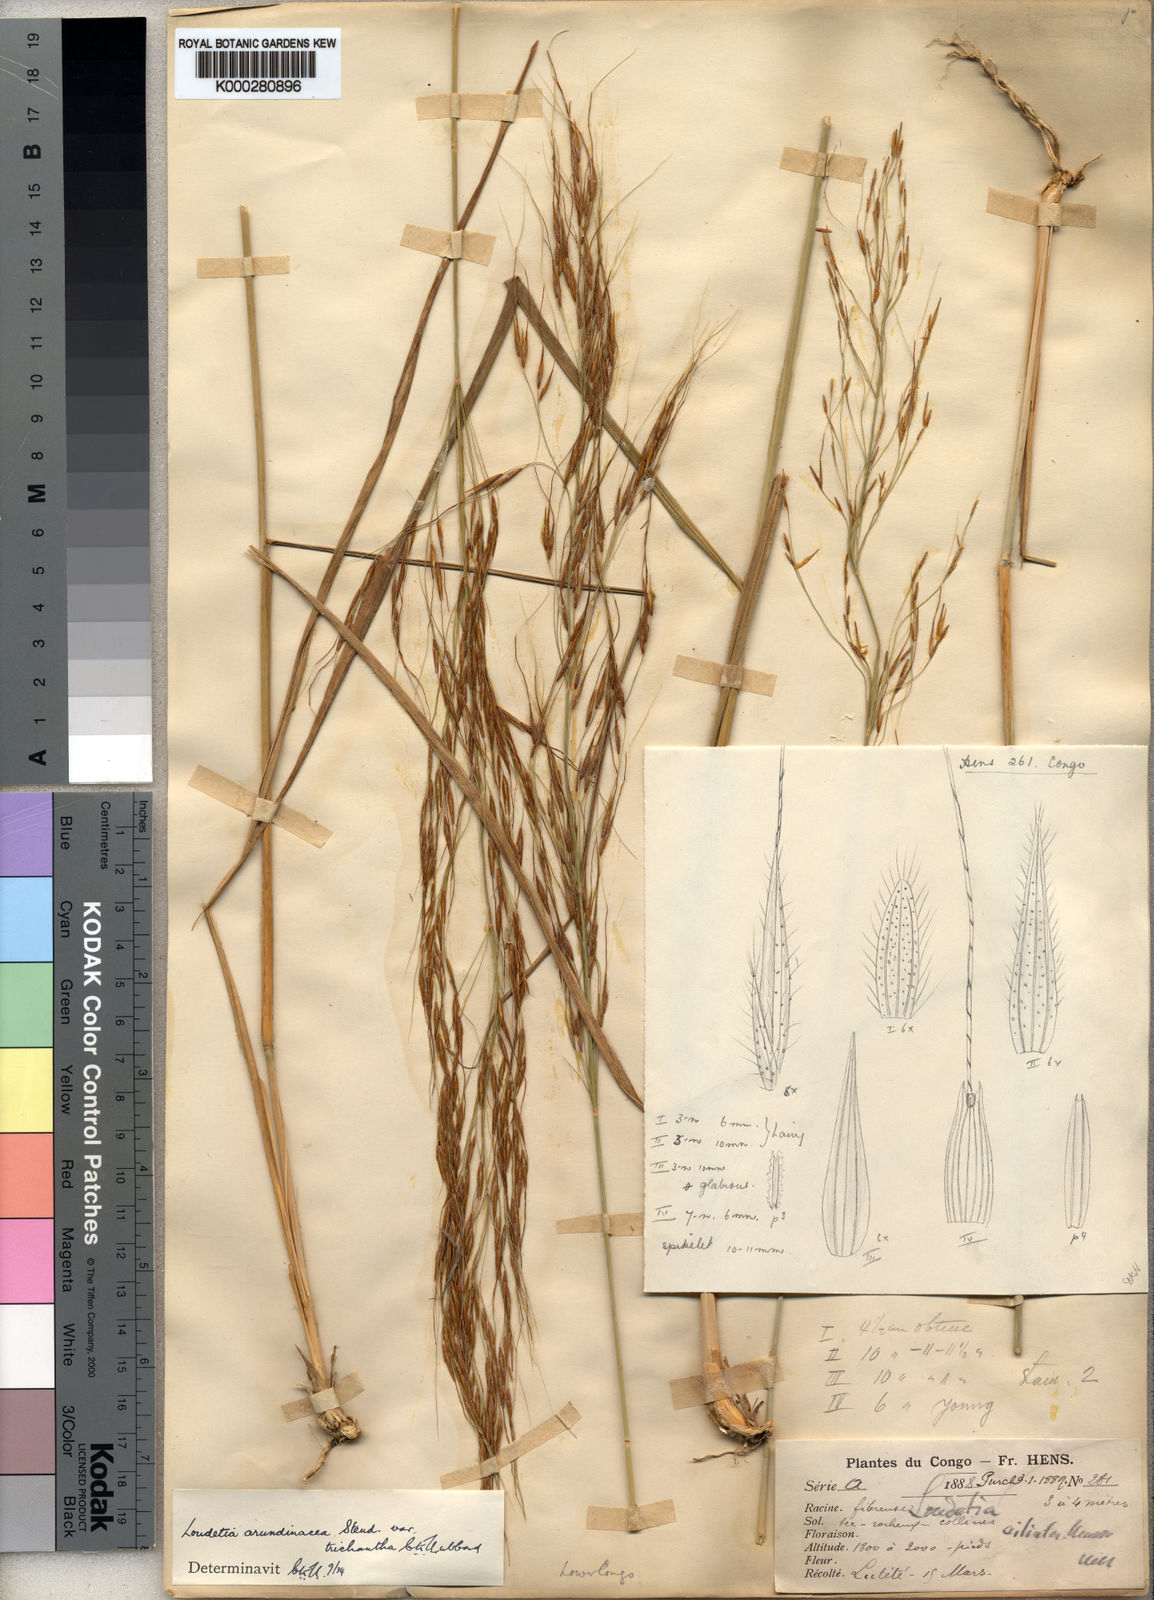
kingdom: Plantae
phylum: Tracheophyta
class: Liliopsida
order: Poales
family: Poaceae
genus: Loudetia
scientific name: Loudetia arundinacea
